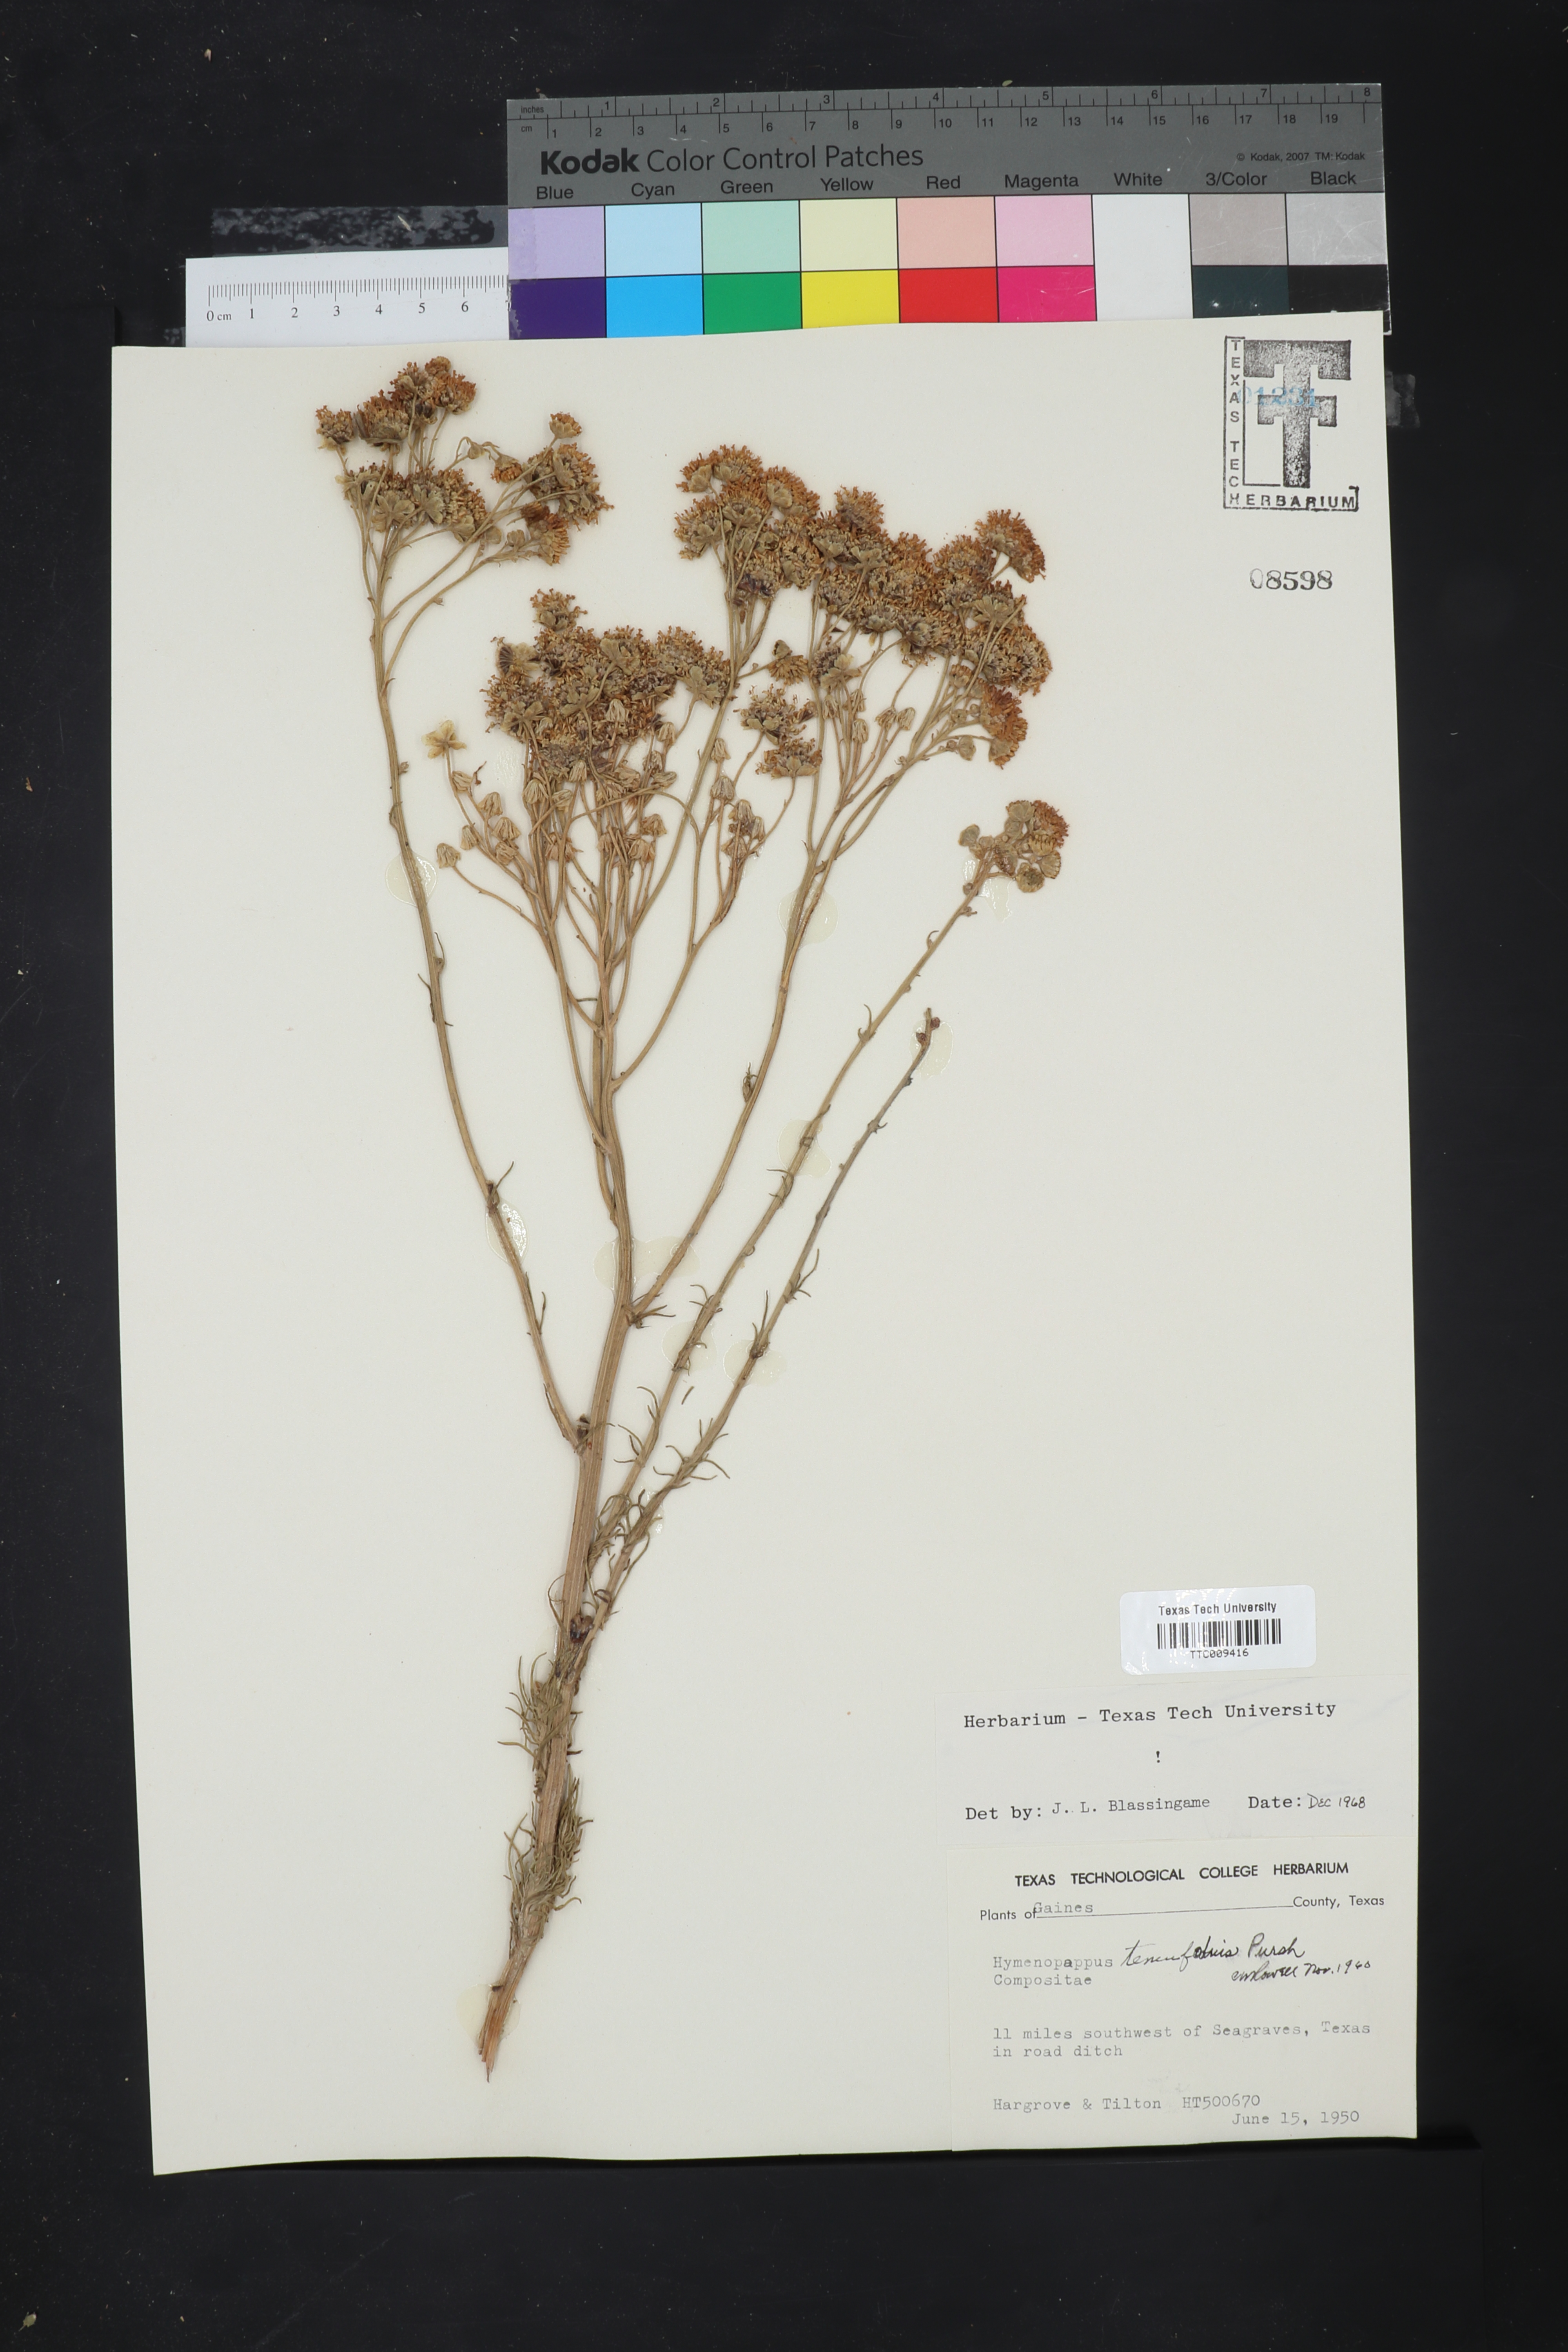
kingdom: Plantae
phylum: Tracheophyta
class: Magnoliopsida
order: Asterales
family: Asteraceae
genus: Hymenopappus
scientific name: Hymenopappus tenuifolius
